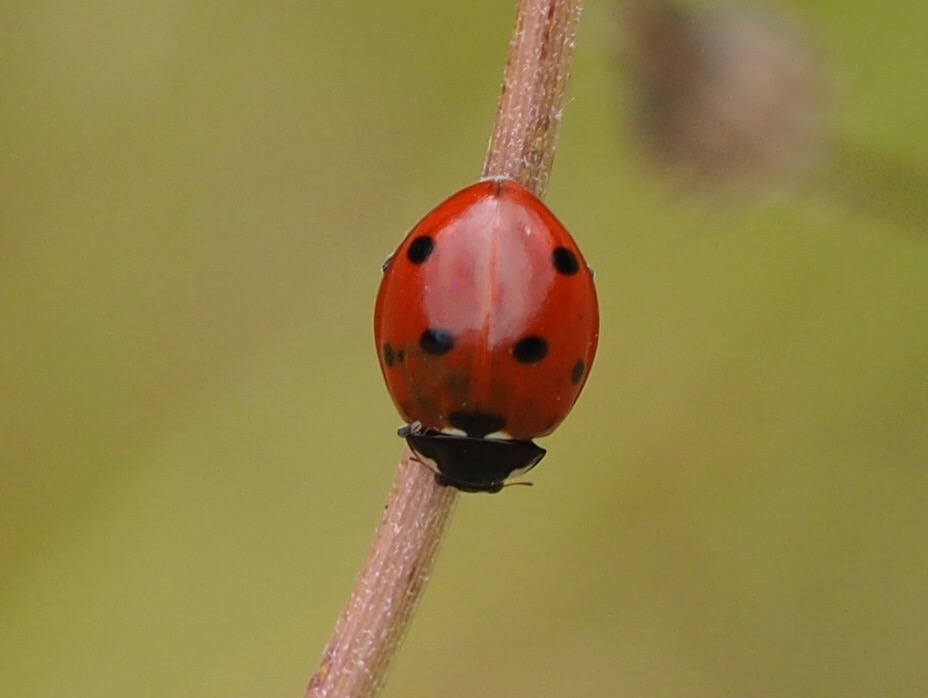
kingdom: Animalia
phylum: Arthropoda
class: Insecta
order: Coleoptera
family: Coccinellidae
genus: Coccinella
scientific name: Coccinella septempunctata
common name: Syvplettet mariehøne
